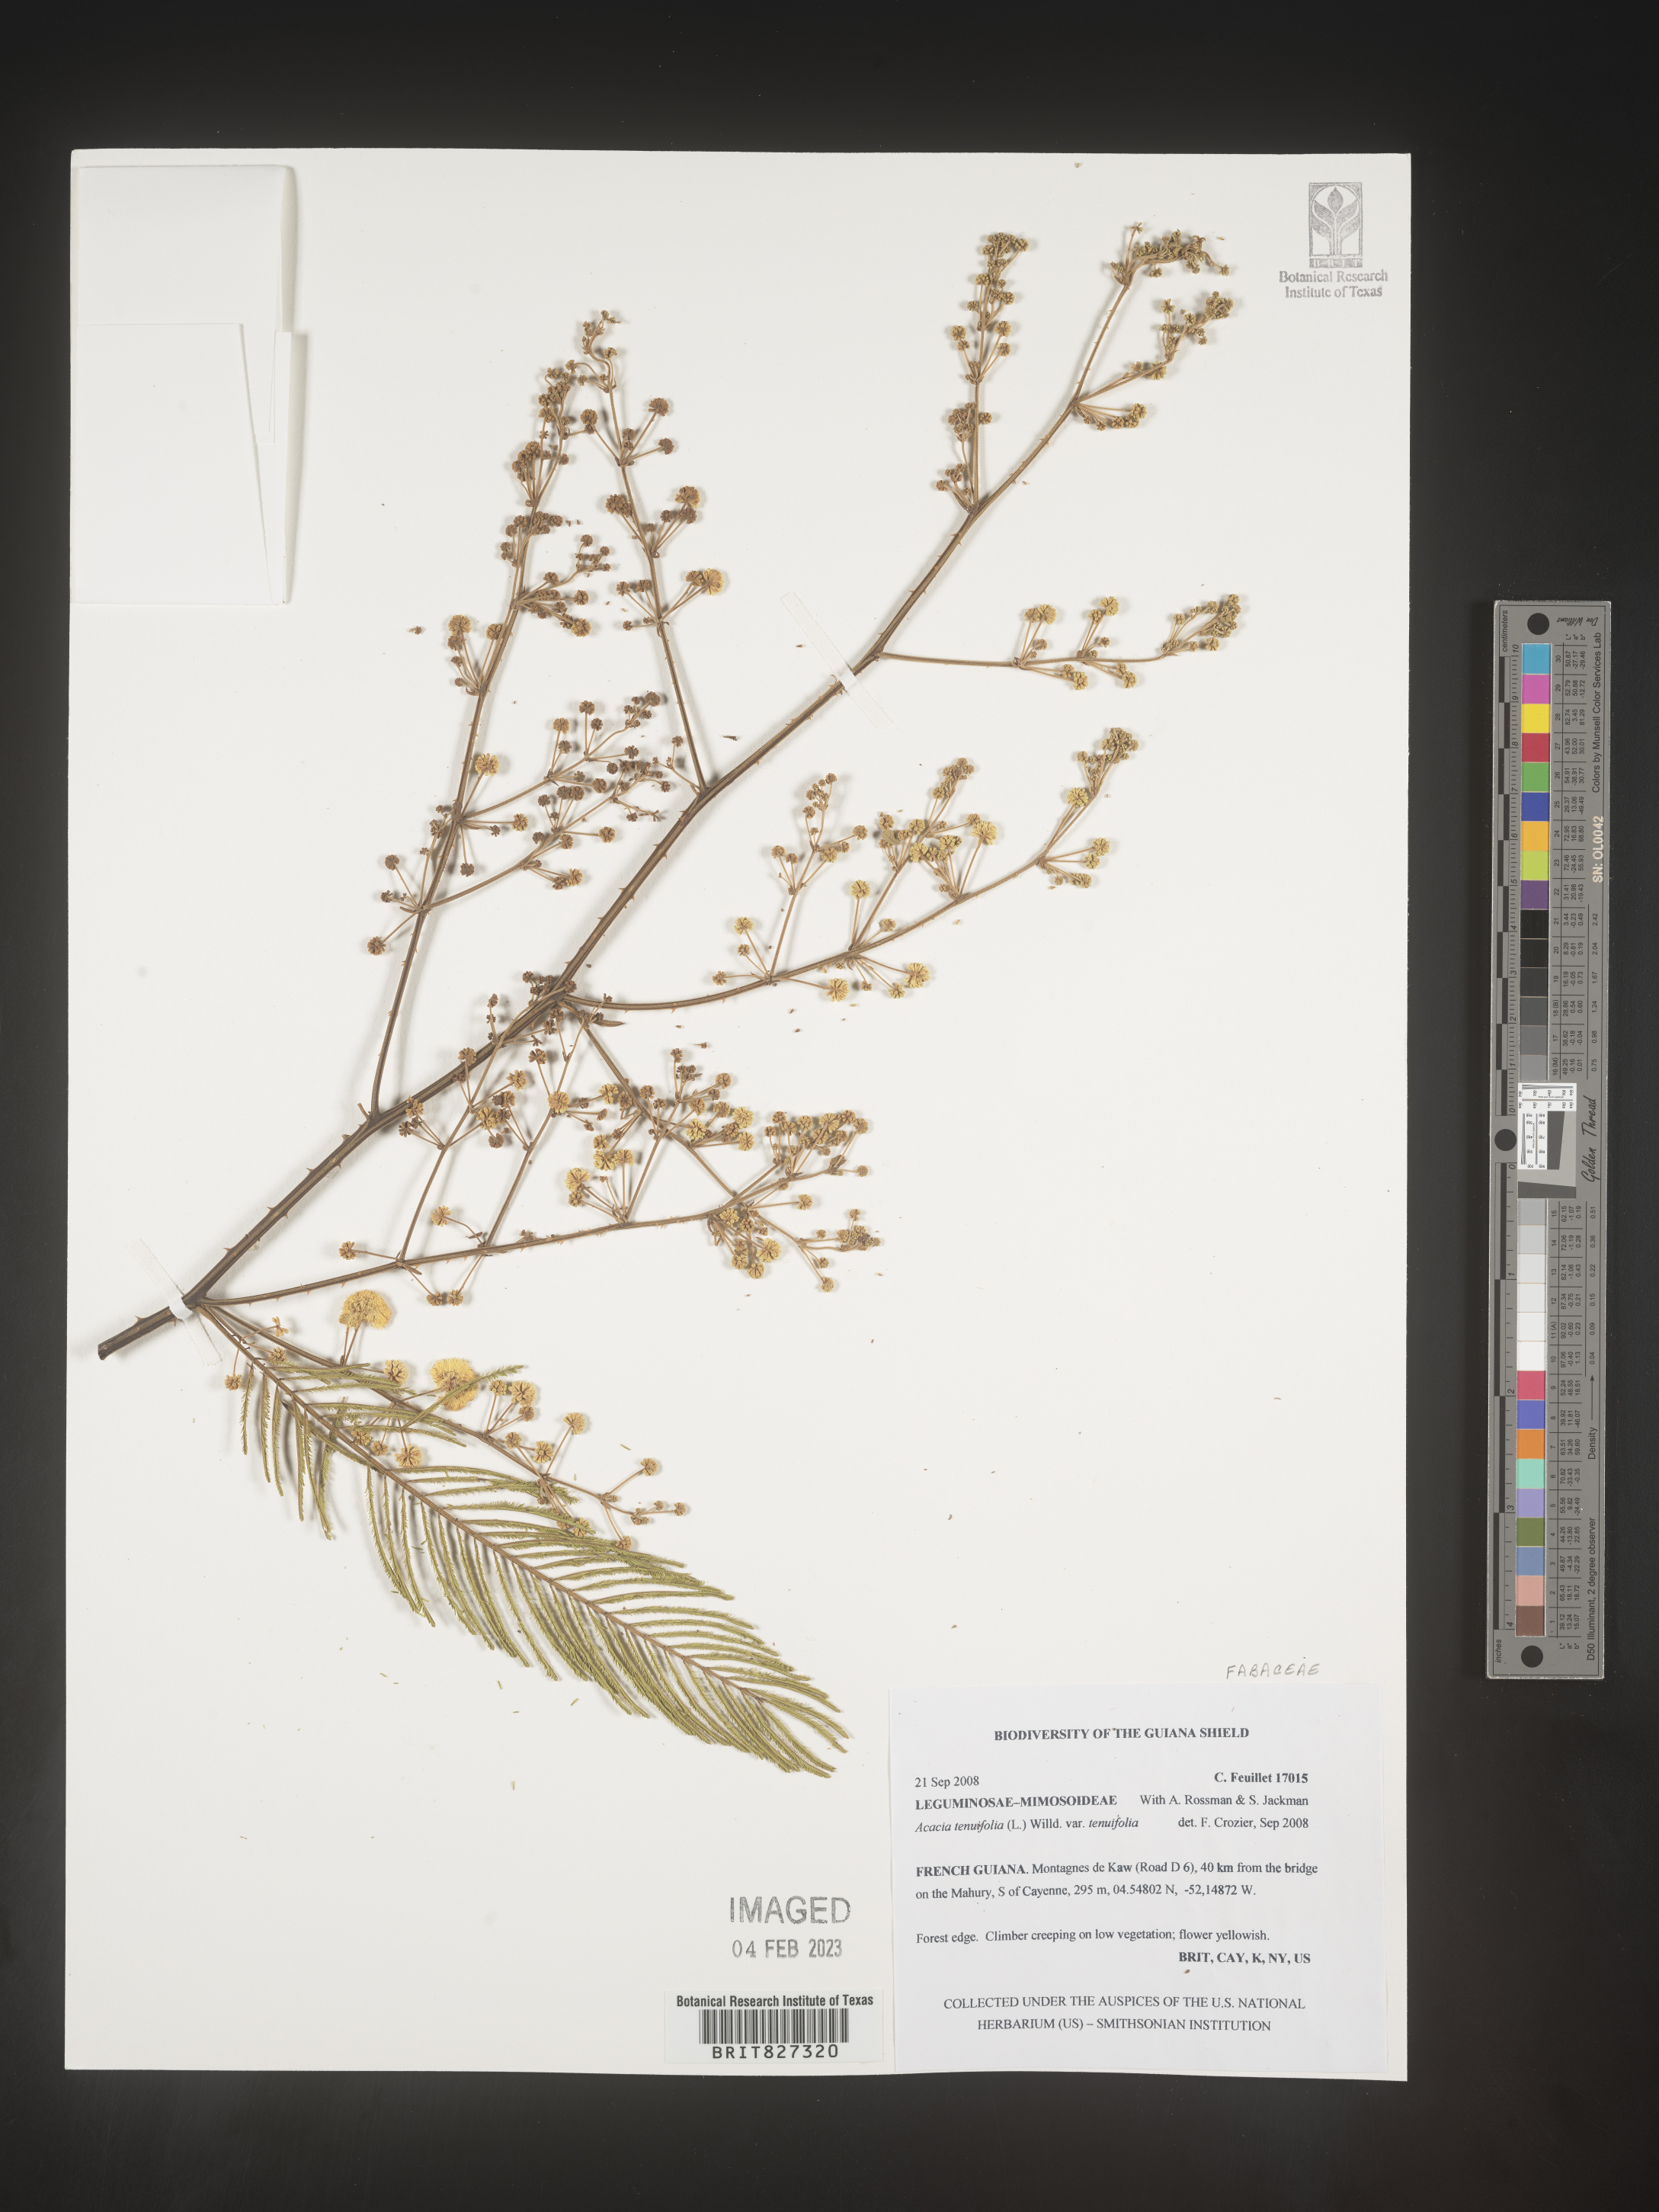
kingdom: Plantae
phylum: Tracheophyta
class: Magnoliopsida
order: Fabales
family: Fabaceae
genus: Mimosa
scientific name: Mimosa
